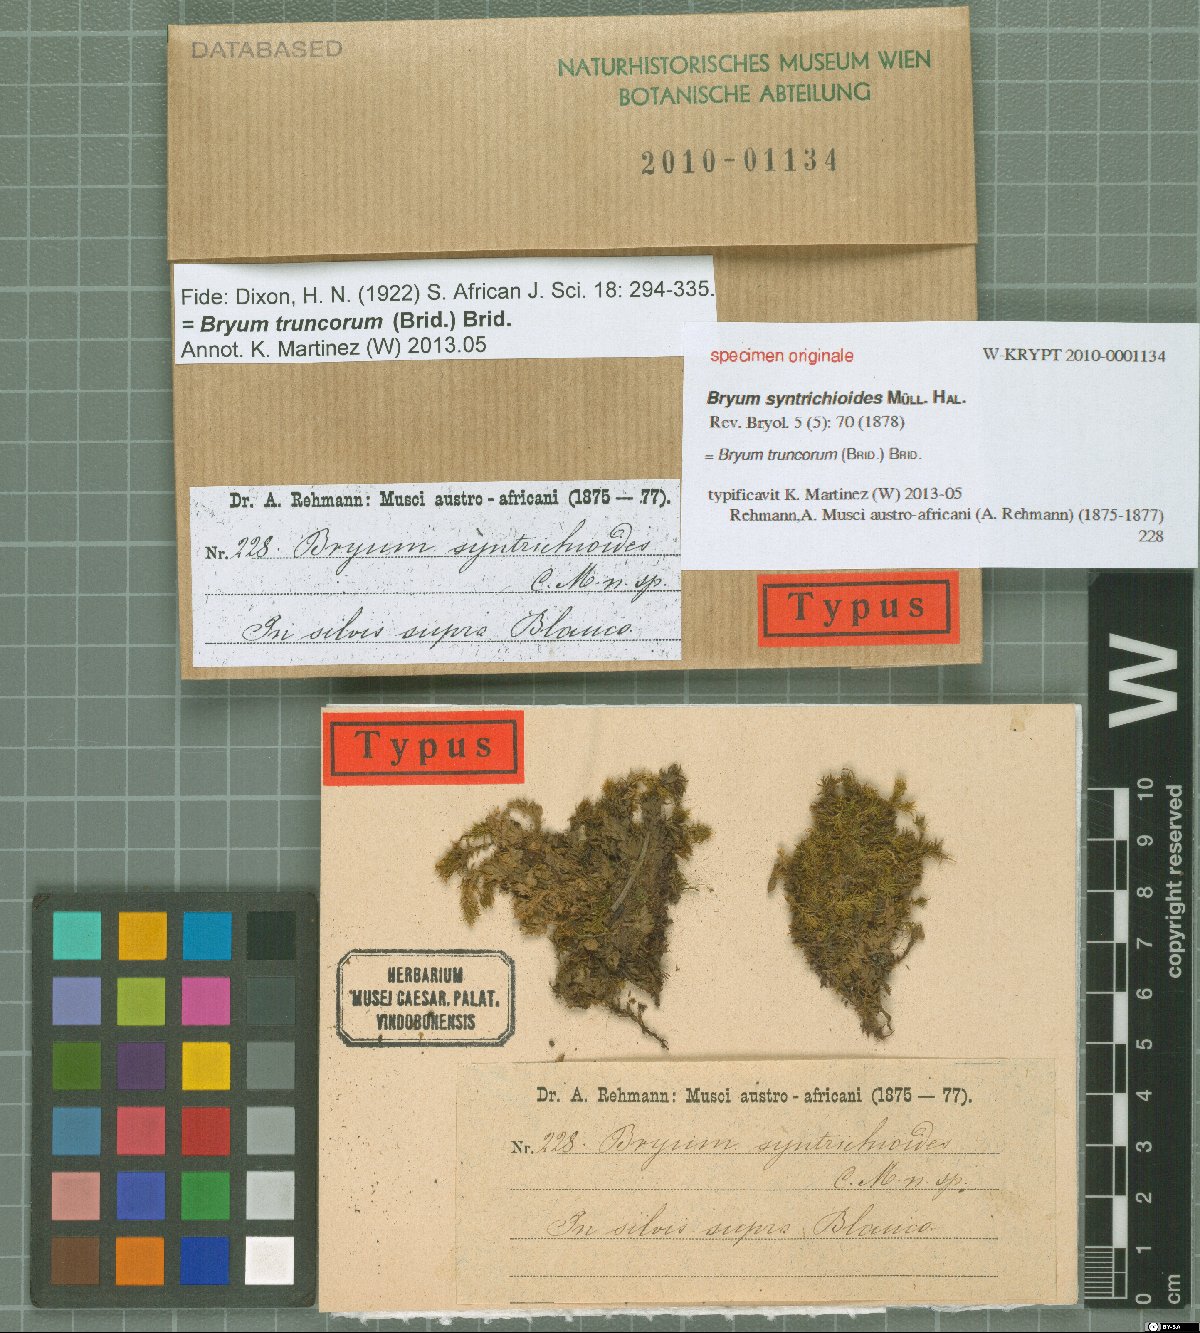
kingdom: Plantae
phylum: Bryophyta
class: Bryopsida
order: Bryales
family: Bryaceae
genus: Rosulabryum
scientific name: Rosulabryum billarderii
